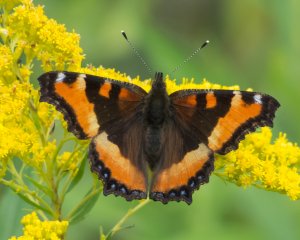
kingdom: Animalia
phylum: Arthropoda
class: Insecta
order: Lepidoptera
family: Nymphalidae
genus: Aglais
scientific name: Aglais milberti
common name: Milbert's Tortoiseshell
